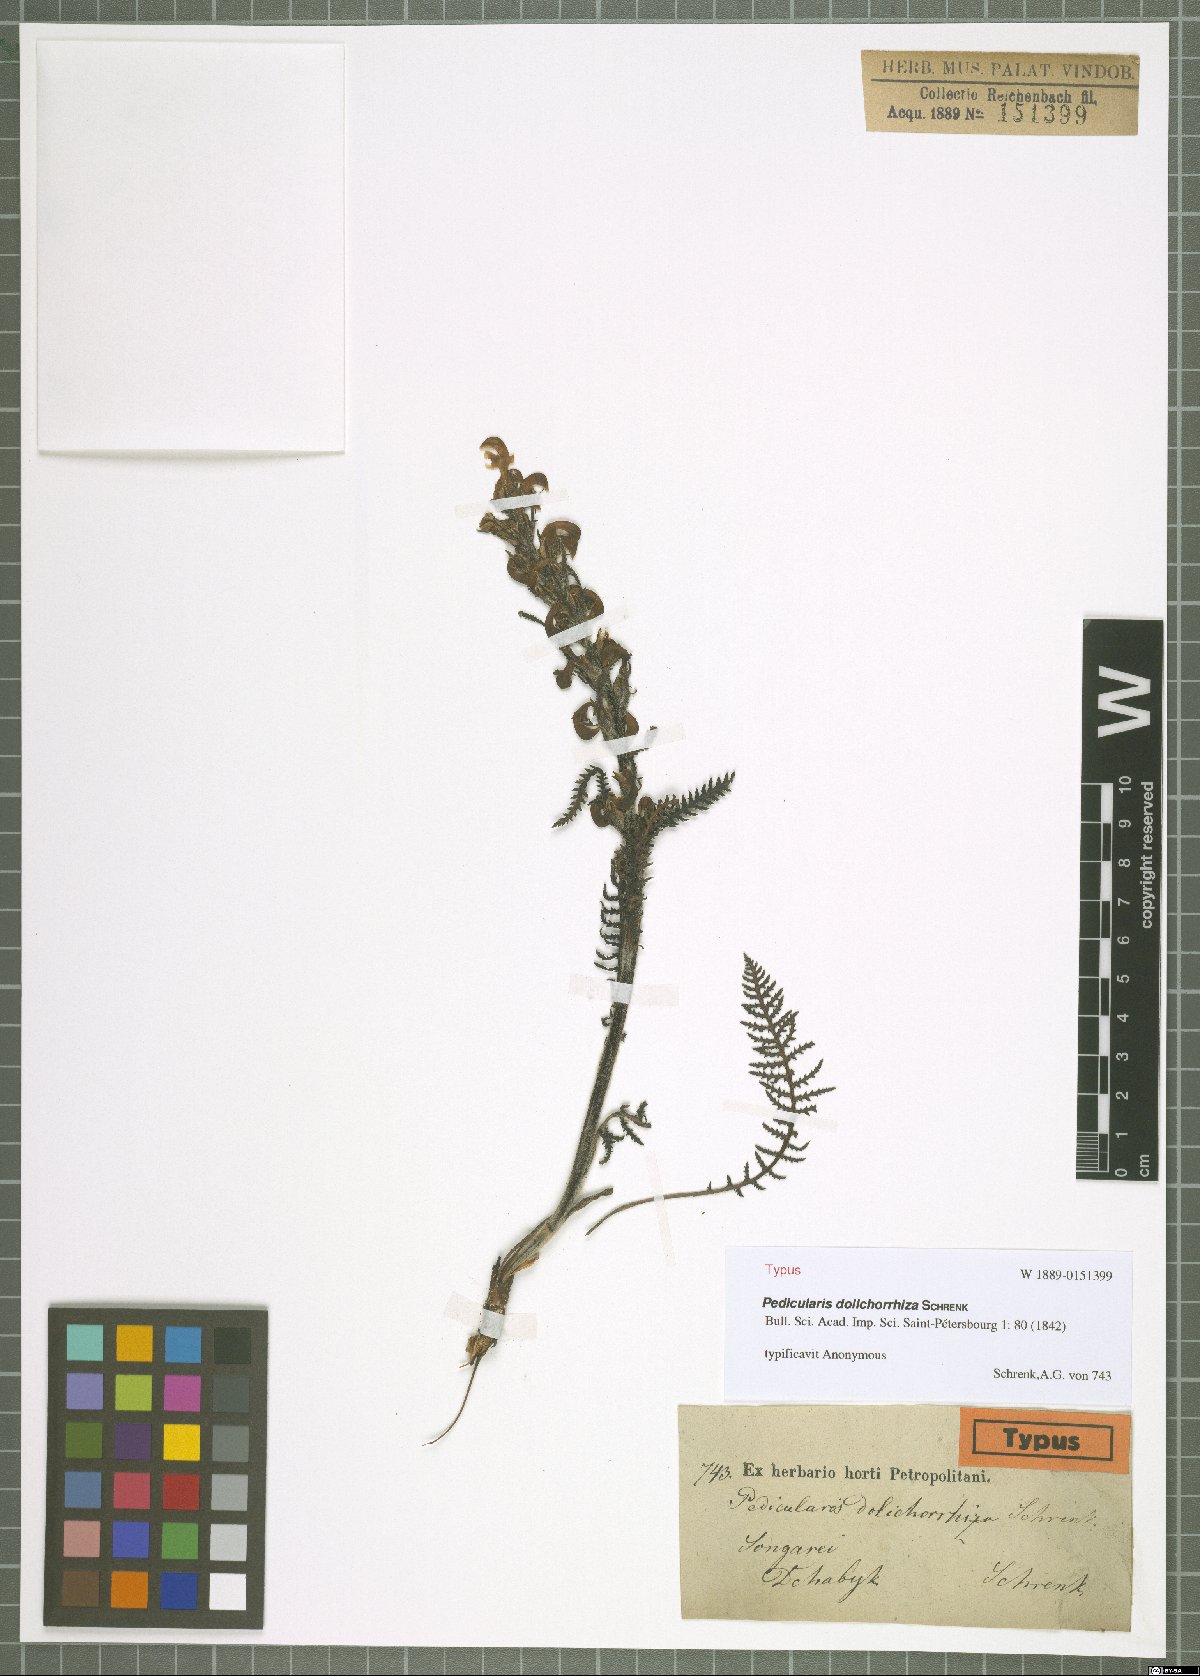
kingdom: Plantae
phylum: Tracheophyta
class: Magnoliopsida
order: Lamiales
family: Orobanchaceae
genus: Pedicularis
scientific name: Pedicularis dolichorrhiza
